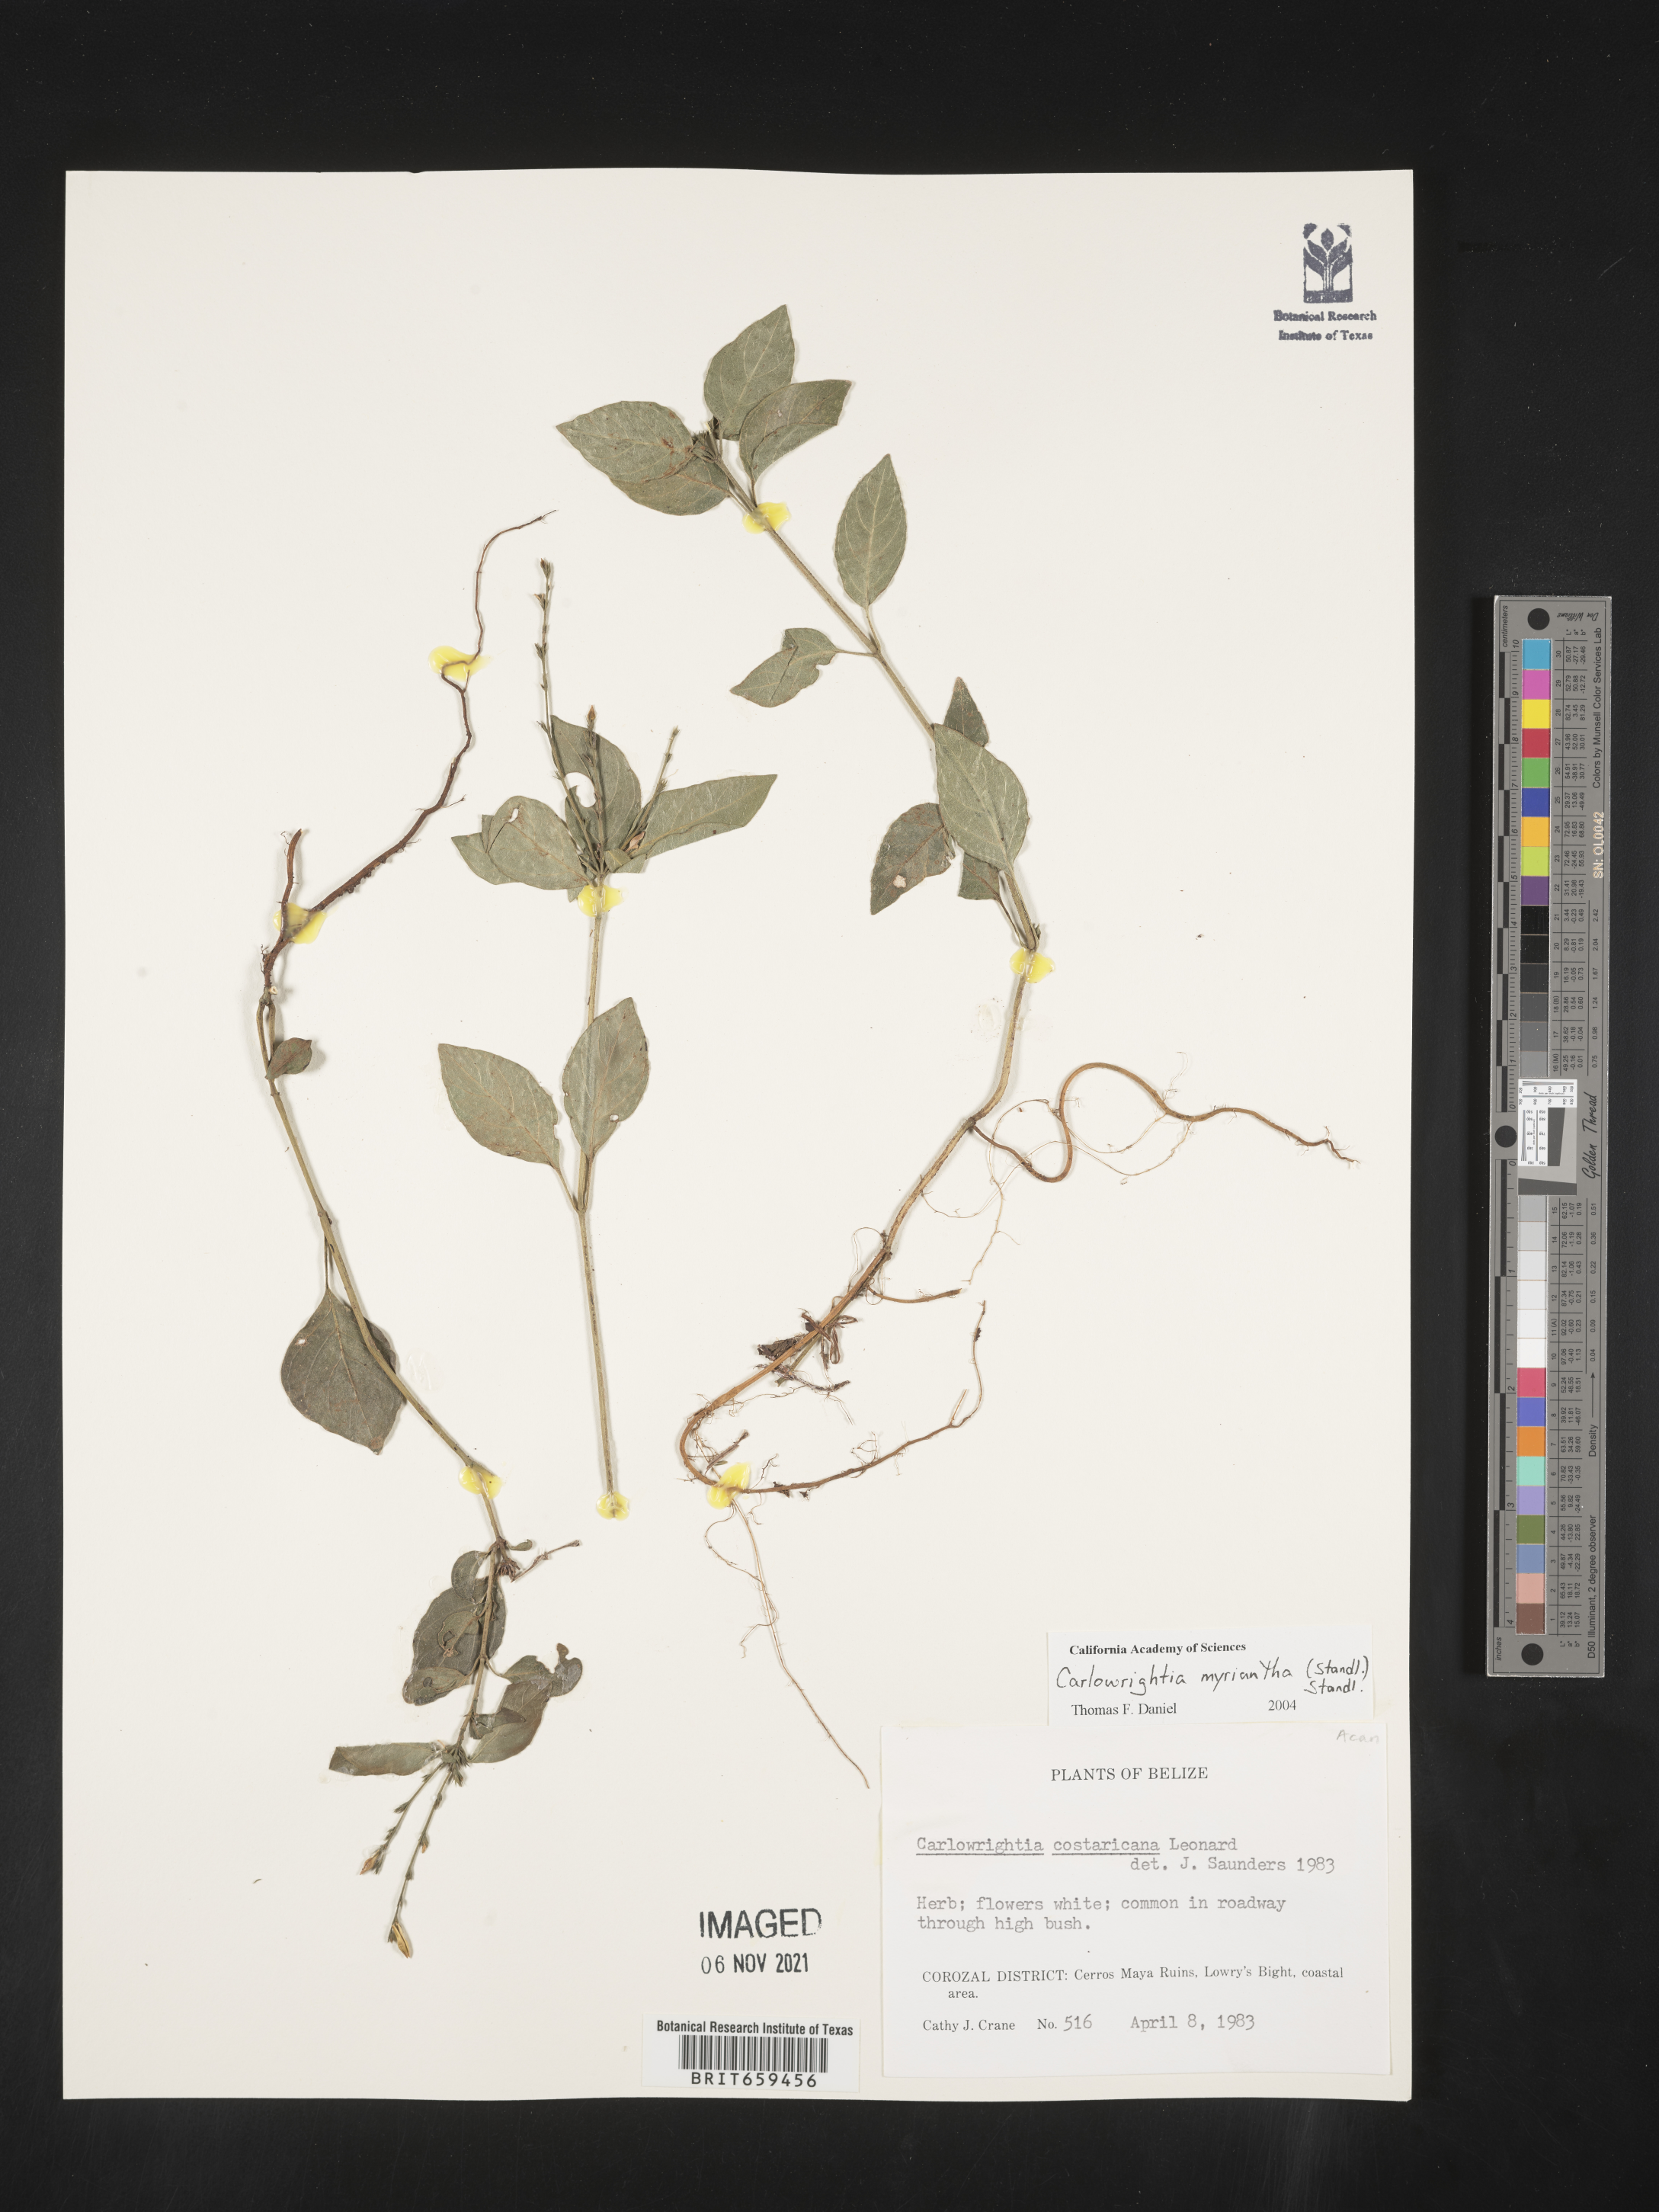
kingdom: Plantae
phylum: Tracheophyta
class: Magnoliopsida
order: Lamiales
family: Acanthaceae
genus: Carlowrightia
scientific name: Carlowrightia
